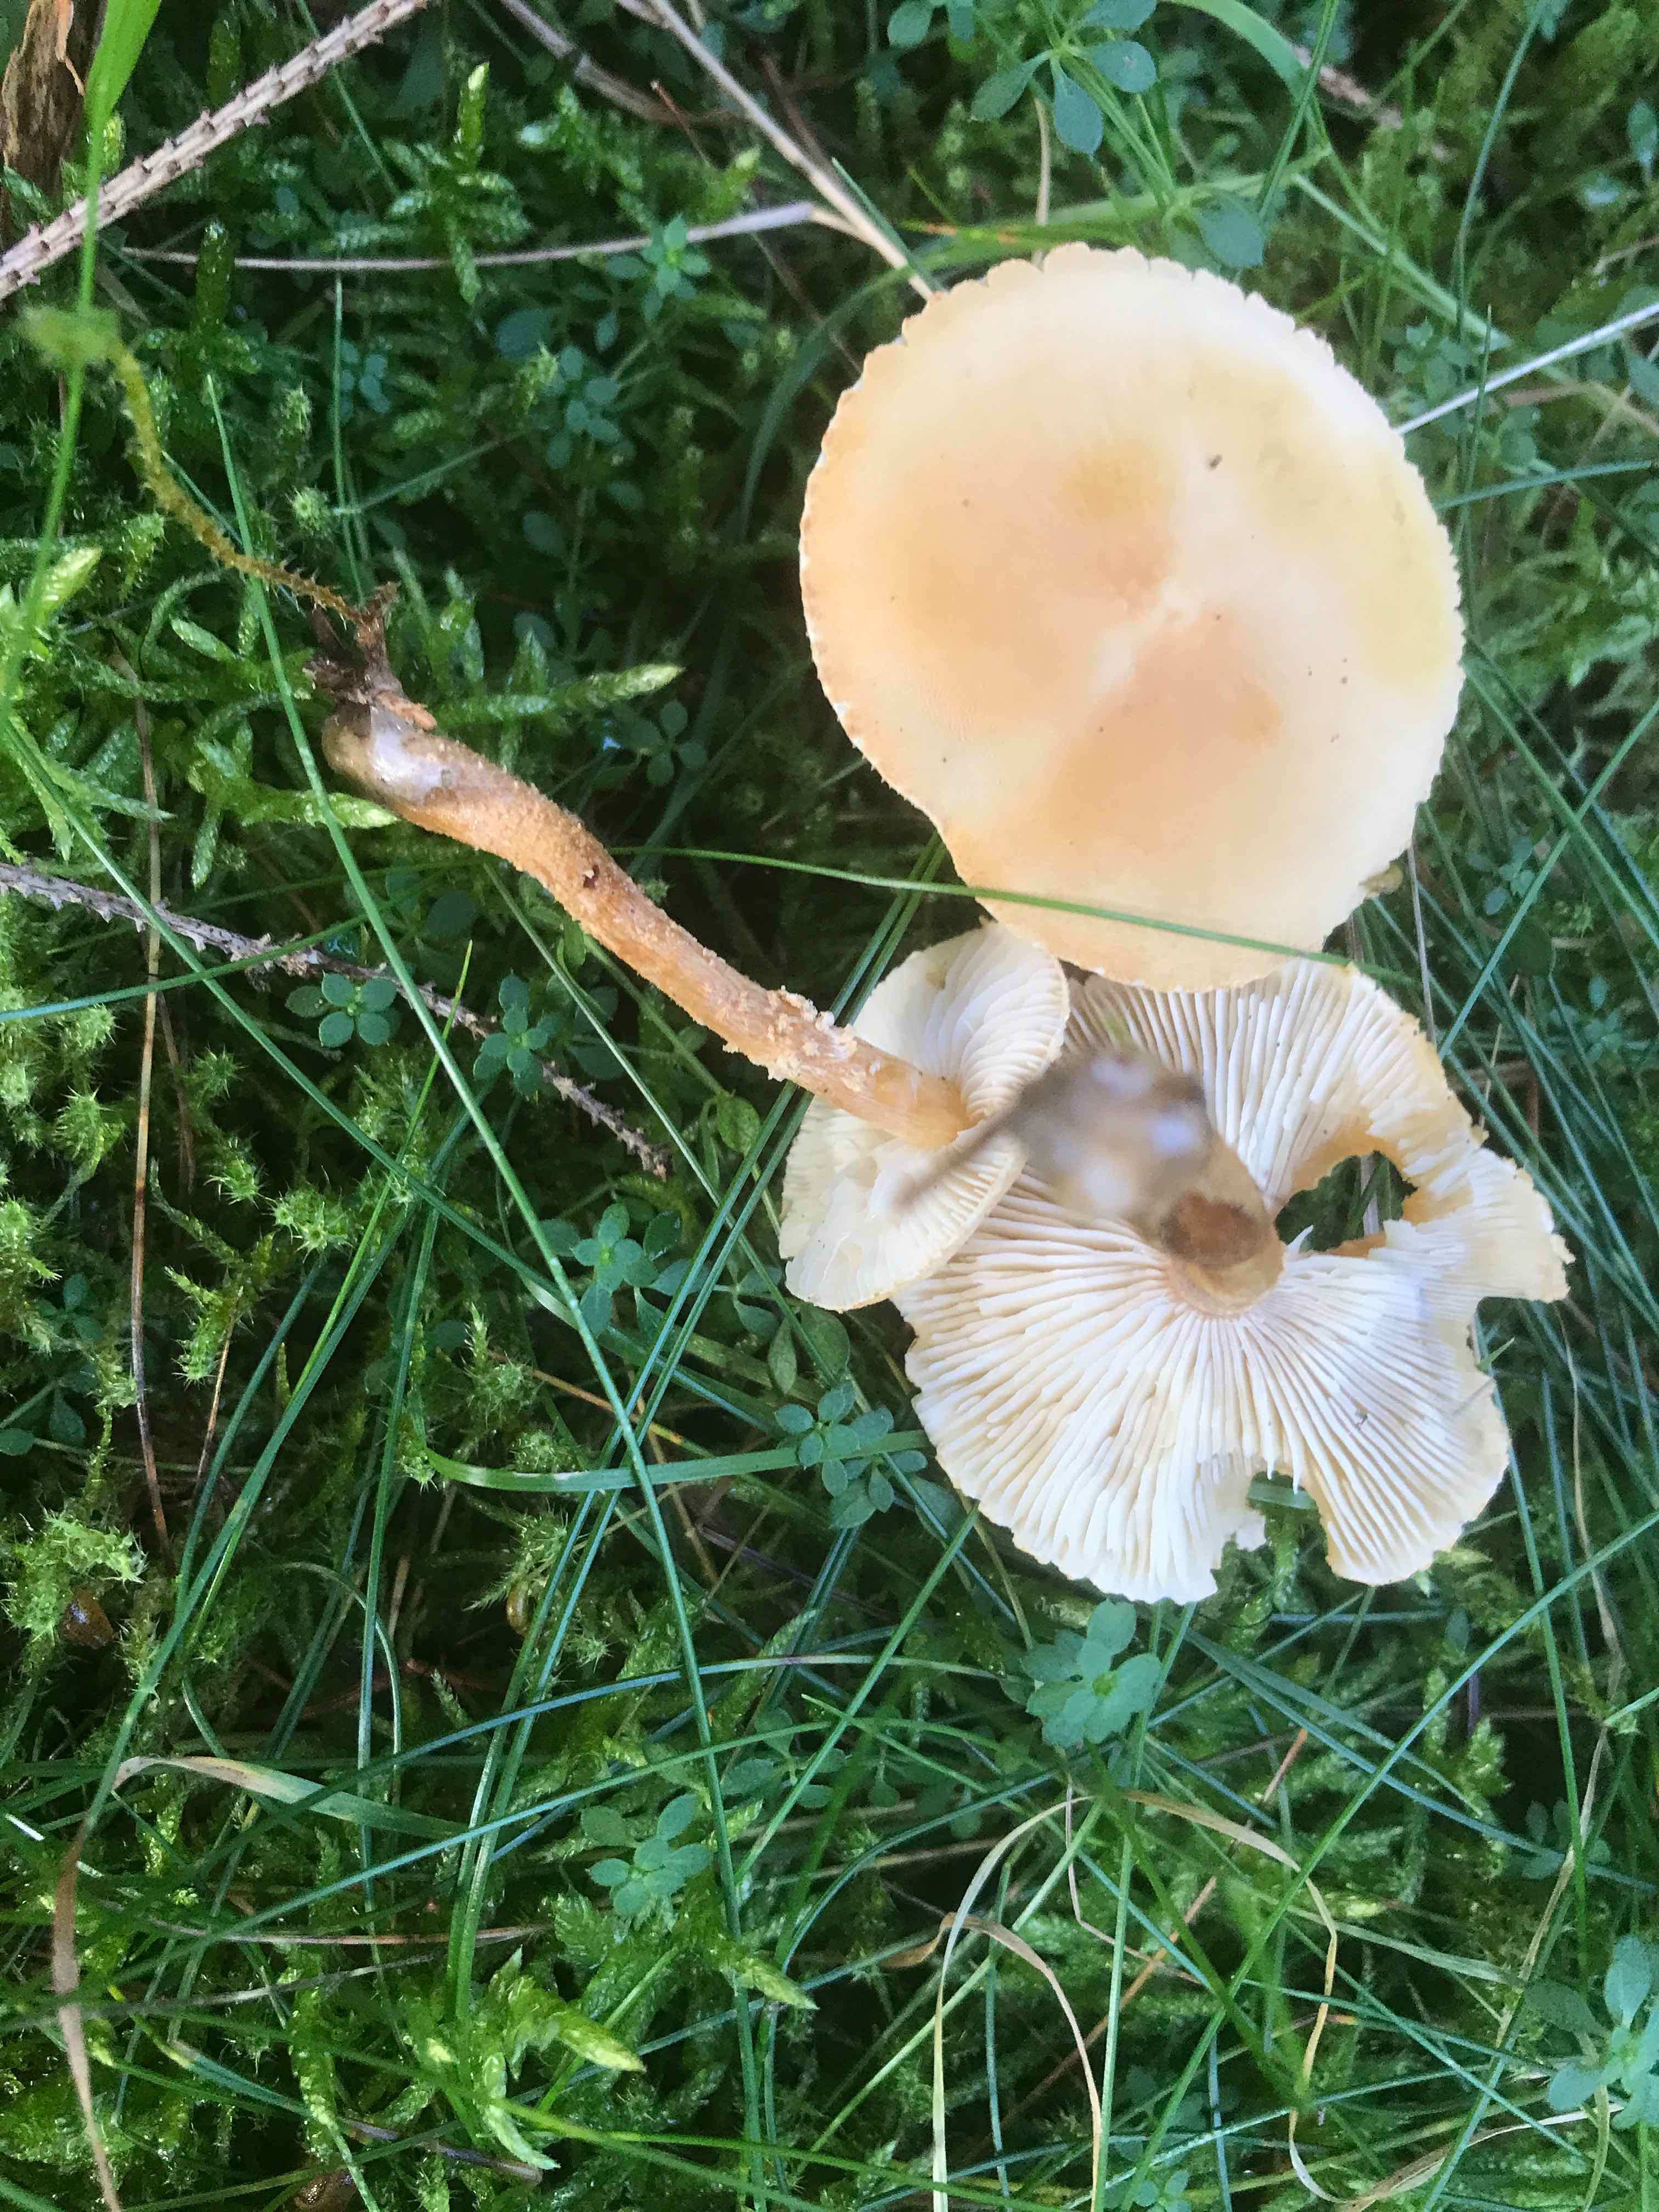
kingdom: Fungi
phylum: Basidiomycota
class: Agaricomycetes
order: Agaricales
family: Tricholomataceae
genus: Cystoderma
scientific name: Cystoderma amianthinum
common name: okkergul grynhat
